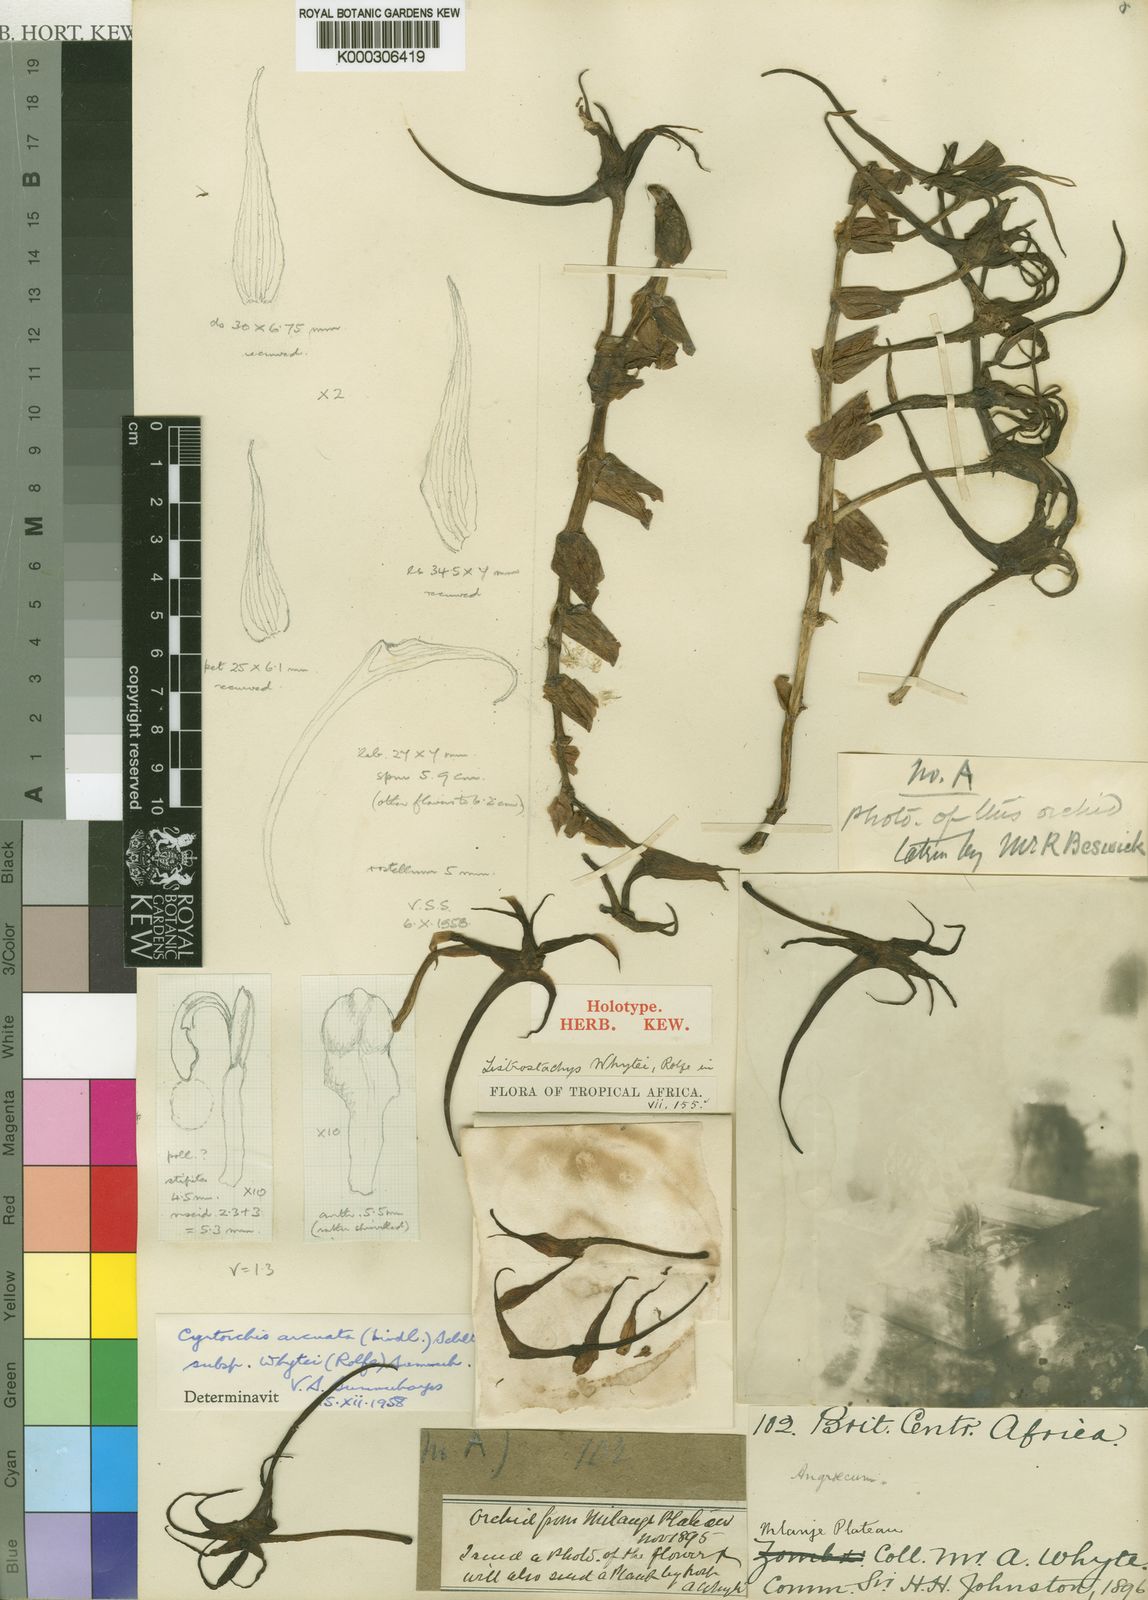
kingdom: Plantae
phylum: Tracheophyta
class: Liliopsida
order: Asparagales
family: Orchidaceae
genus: Cyrtorchis
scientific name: Cyrtorchis arcuata
